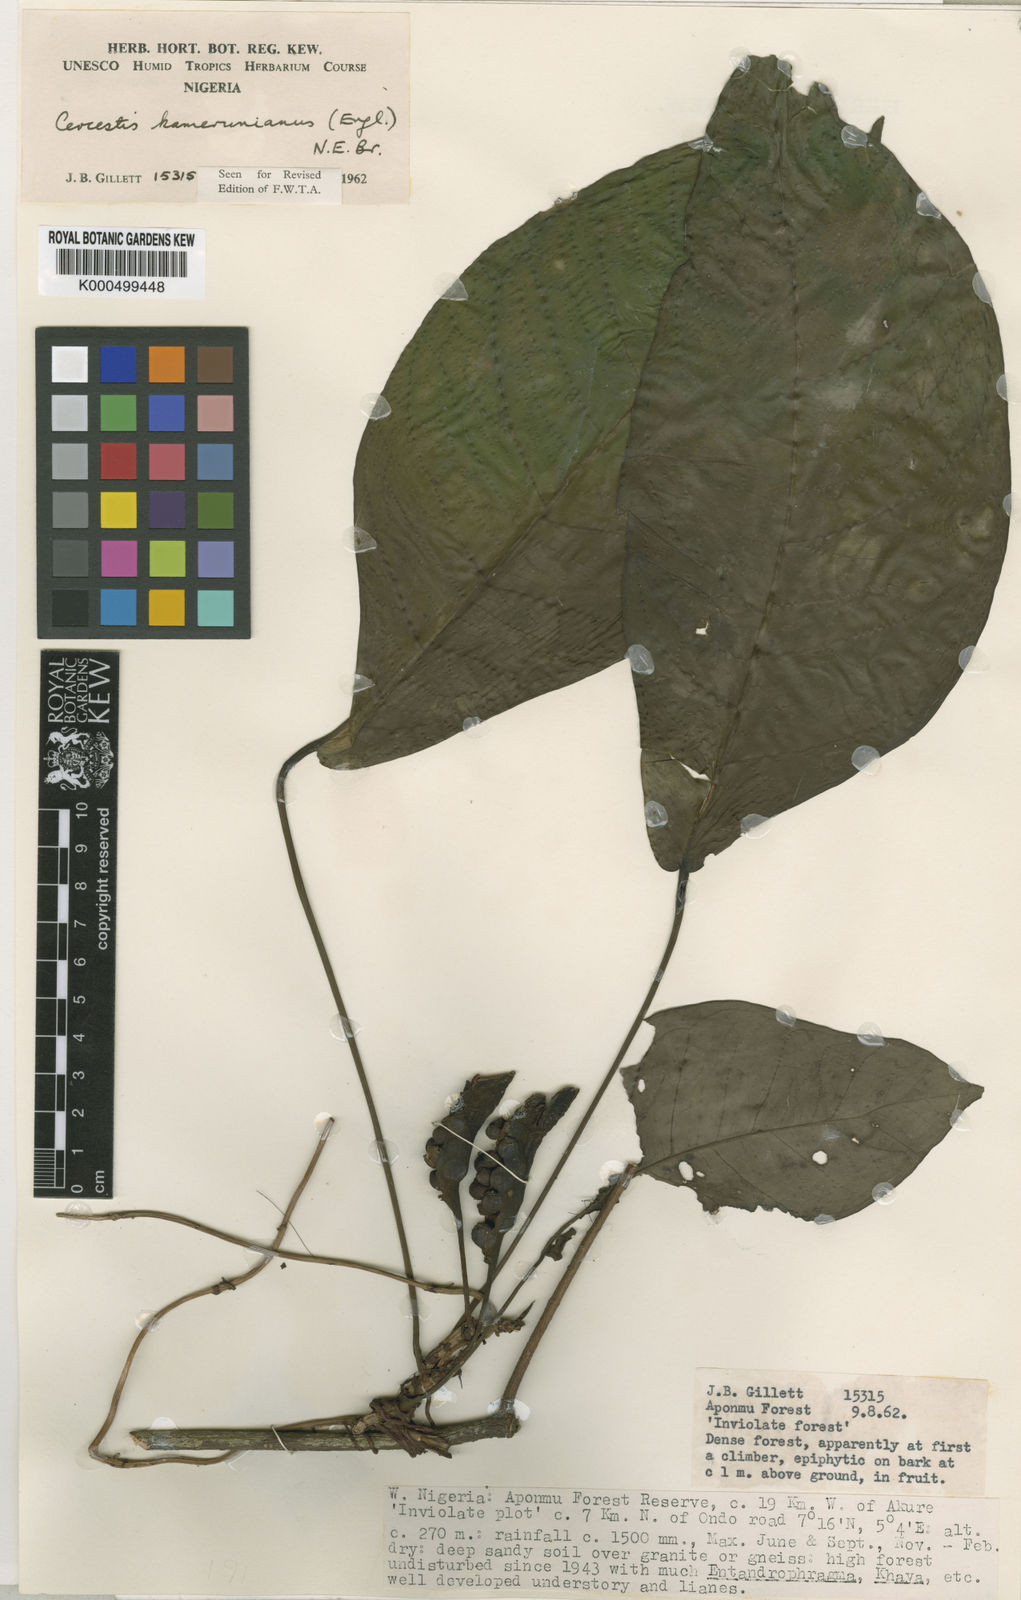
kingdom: Plantae
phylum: Tracheophyta
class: Liliopsida
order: Alismatales
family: Araceae
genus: Cercestis
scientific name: Cercestis kamerunianus
